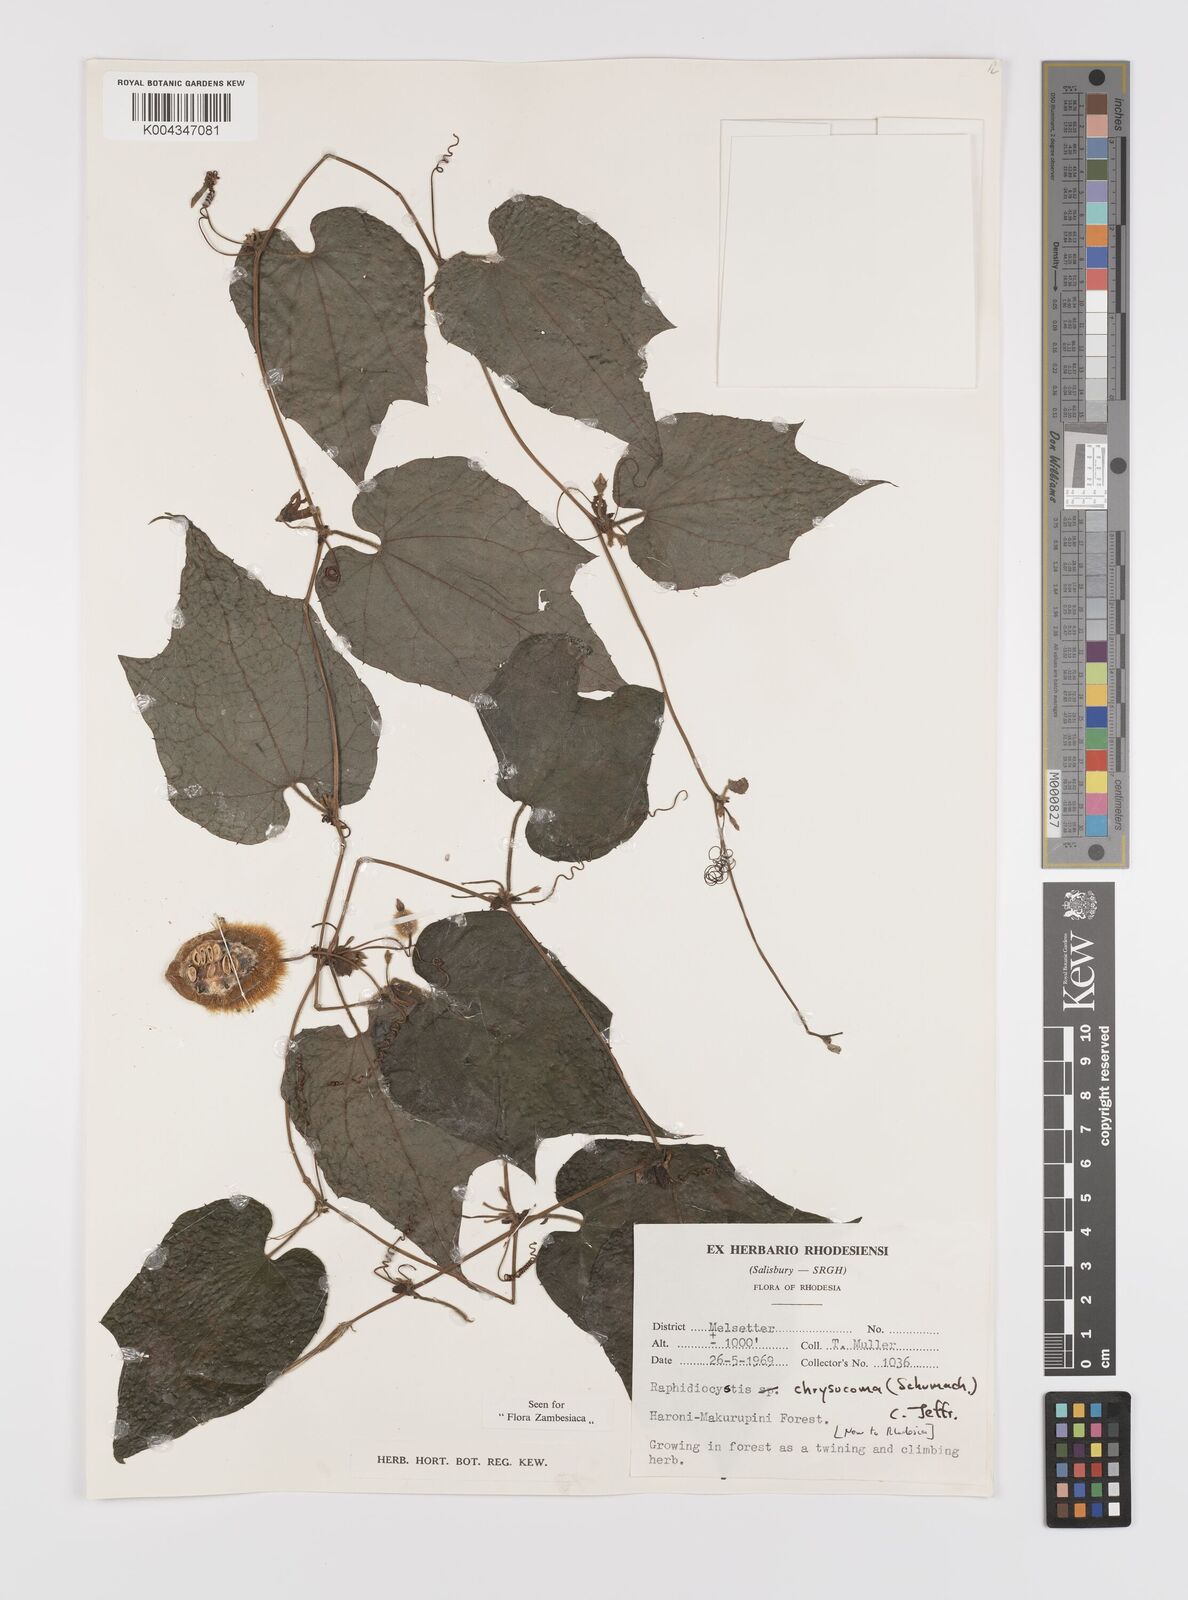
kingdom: Plantae
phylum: Tracheophyta
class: Magnoliopsida
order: Cucurbitales
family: Cucurbitaceae
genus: Raphidiocystis
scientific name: Raphidiocystis chrysocoma
